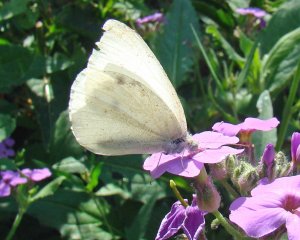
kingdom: Animalia
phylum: Arthropoda
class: Insecta
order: Lepidoptera
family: Pieridae
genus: Pieris
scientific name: Pieris rapae
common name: Cabbage White
